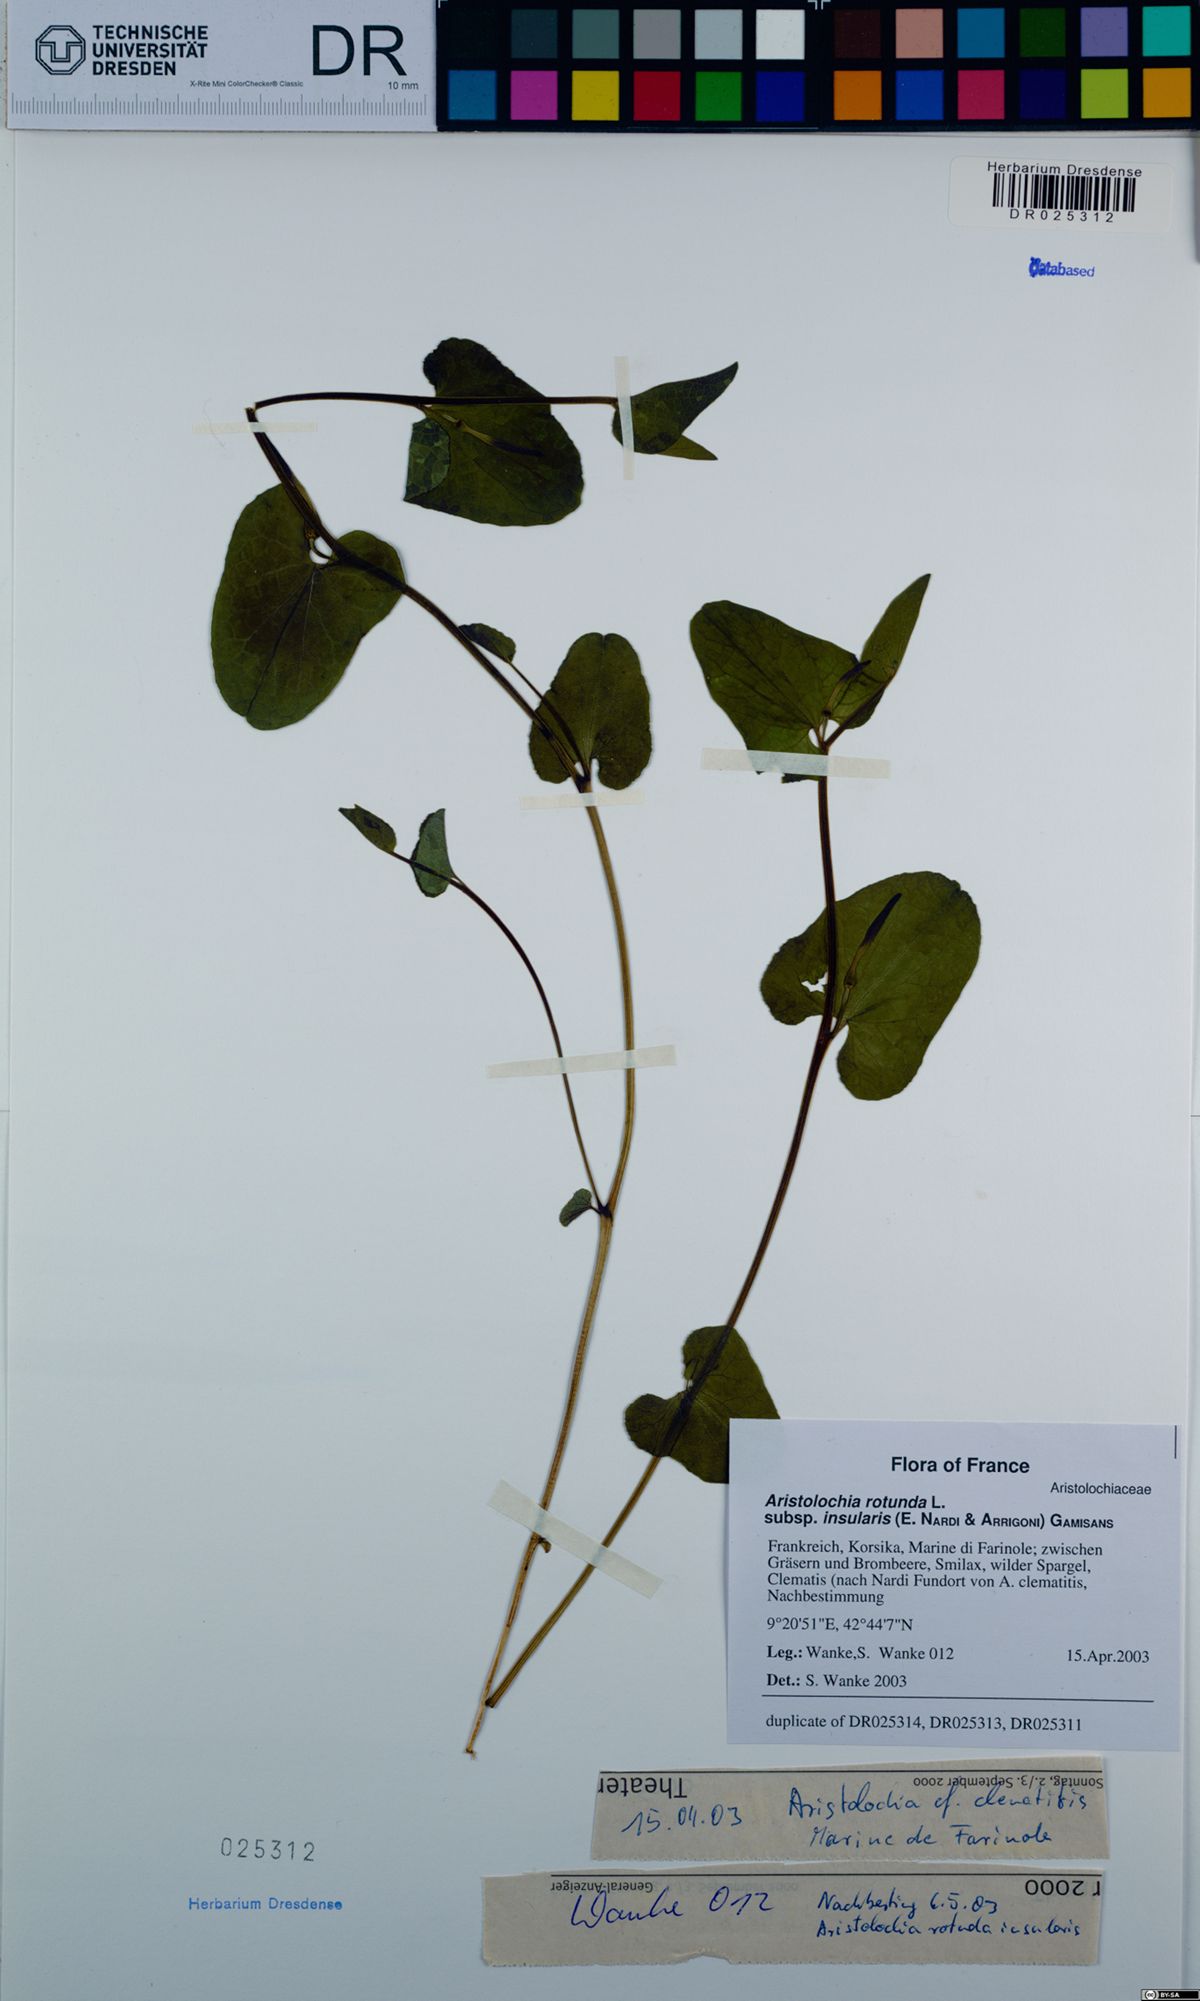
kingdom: Plantae
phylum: Tracheophyta
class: Magnoliopsida
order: Piperales
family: Aristolochiaceae
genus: Aristolochia
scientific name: Aristolochia rotunda
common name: Smearwort
